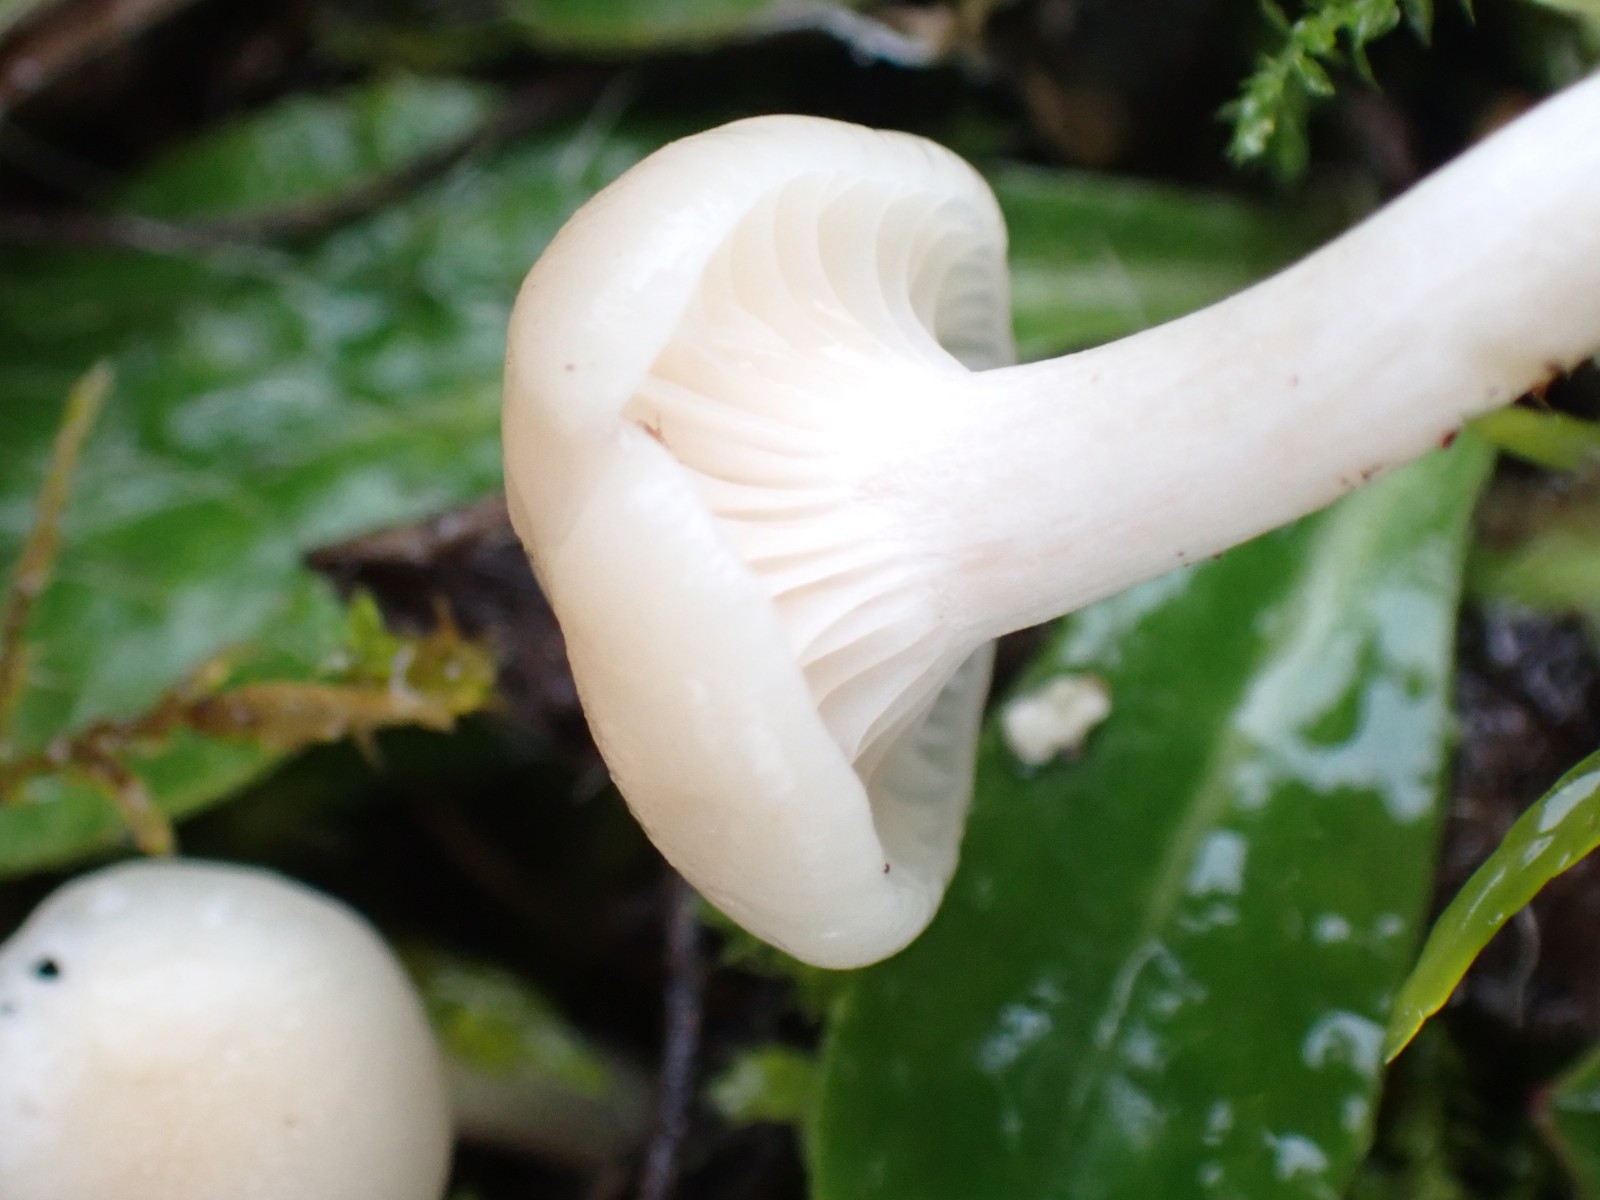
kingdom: Fungi
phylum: Basidiomycota
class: Agaricomycetes
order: Agaricales
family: Hygrophoraceae
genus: Cuphophyllus
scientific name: Cuphophyllus virgineus
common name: snehvid vokshat
